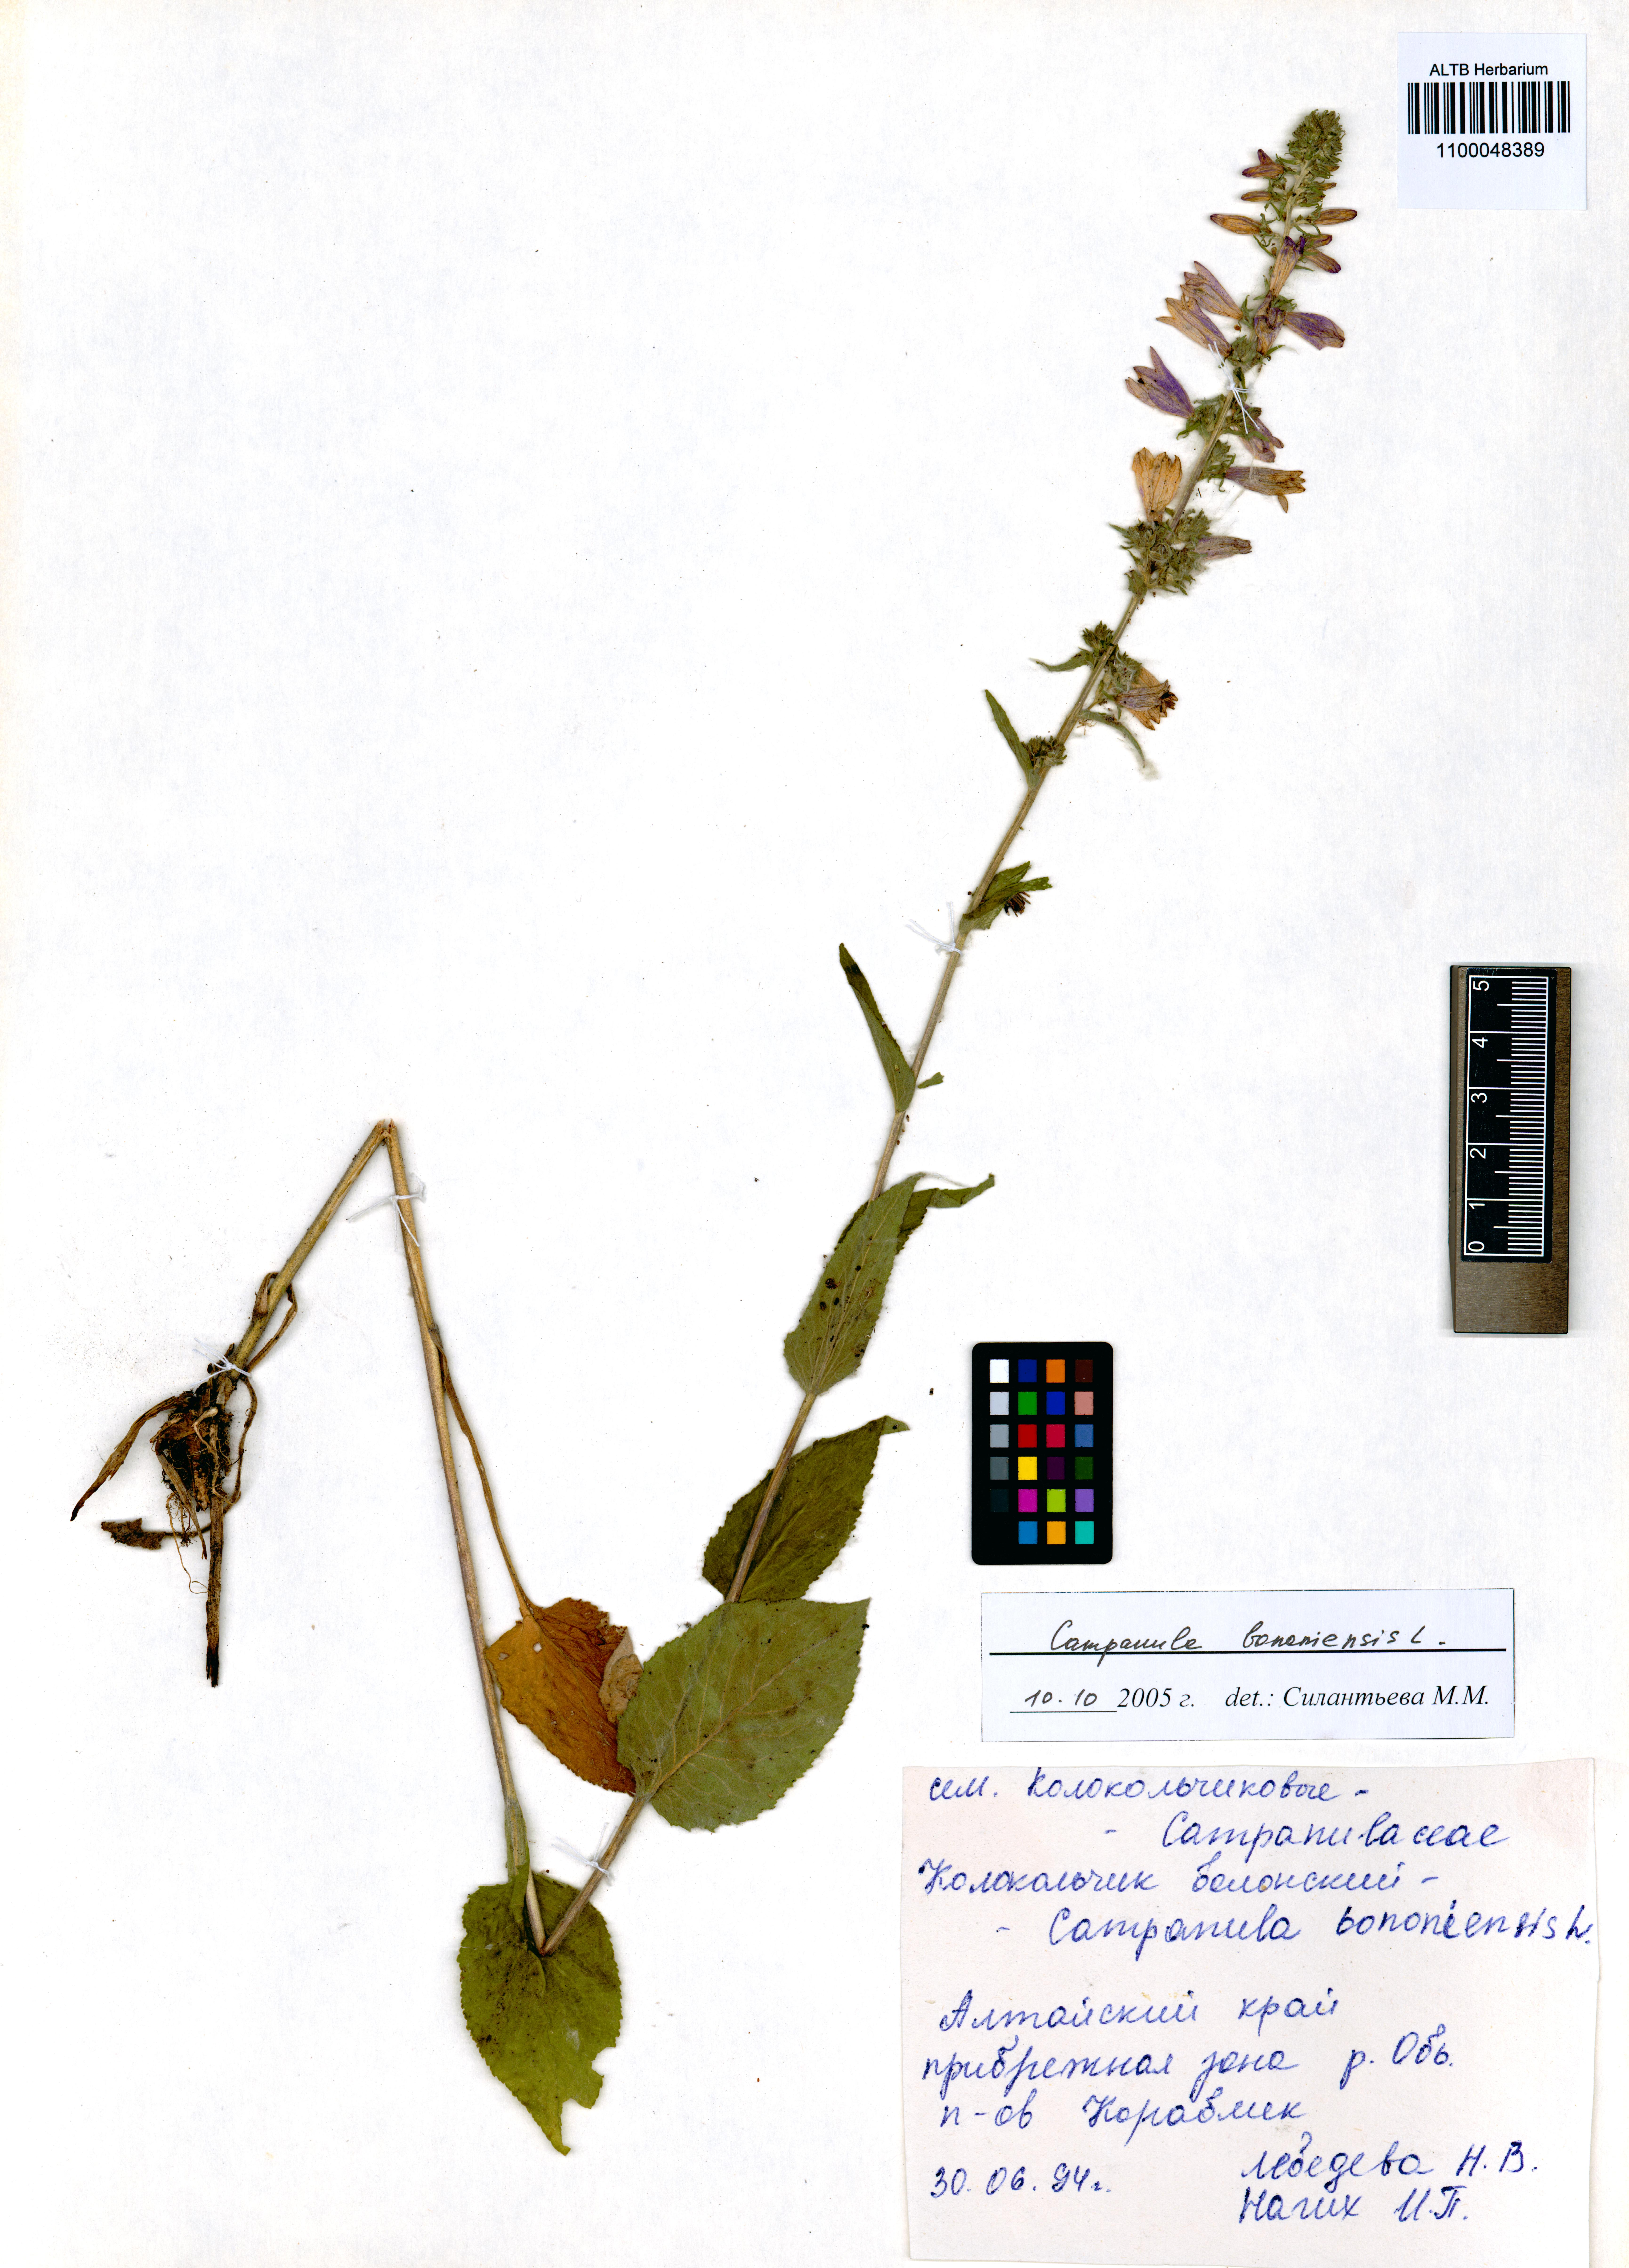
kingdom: Plantae
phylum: Tracheophyta
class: Magnoliopsida
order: Asterales
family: Campanulaceae
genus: Campanula
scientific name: Campanula bononiensis
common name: Pale bellflower
